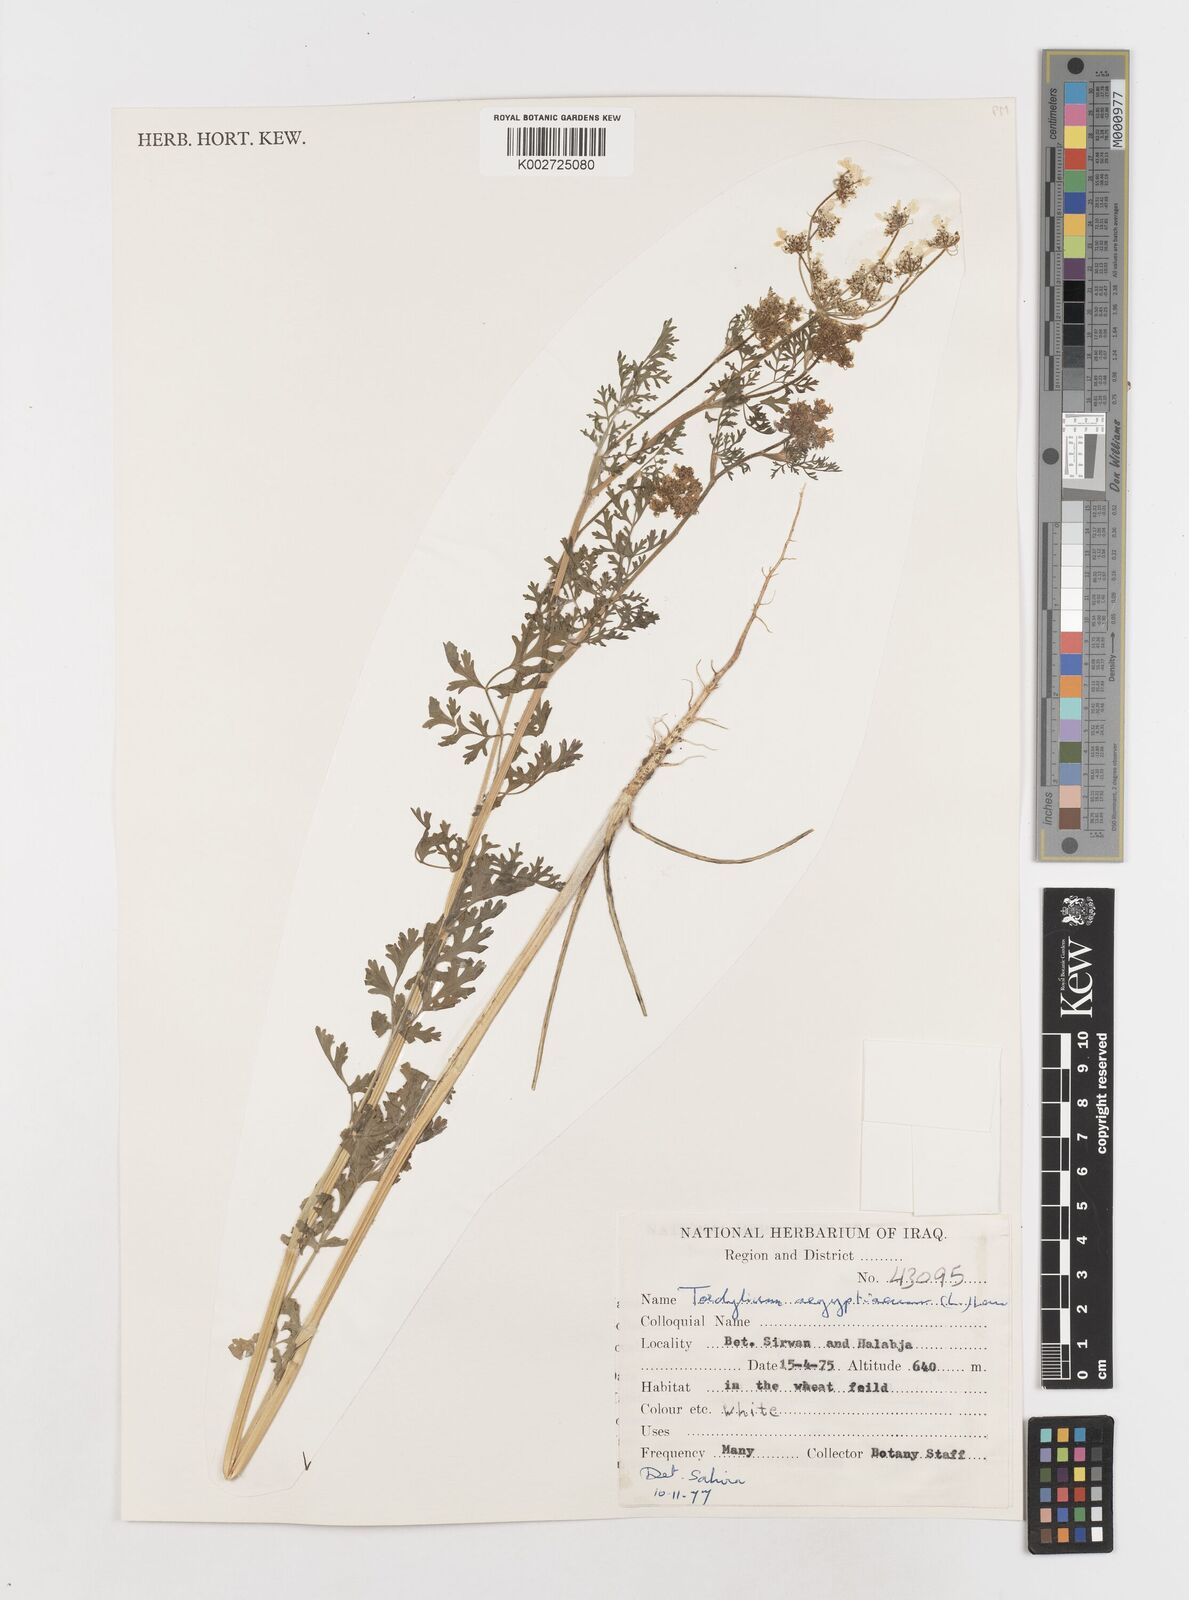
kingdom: Plantae
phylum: Tracheophyta
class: Magnoliopsida
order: Apiales
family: Apiaceae
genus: Tordylium
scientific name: Tordylium aegyptiacum
